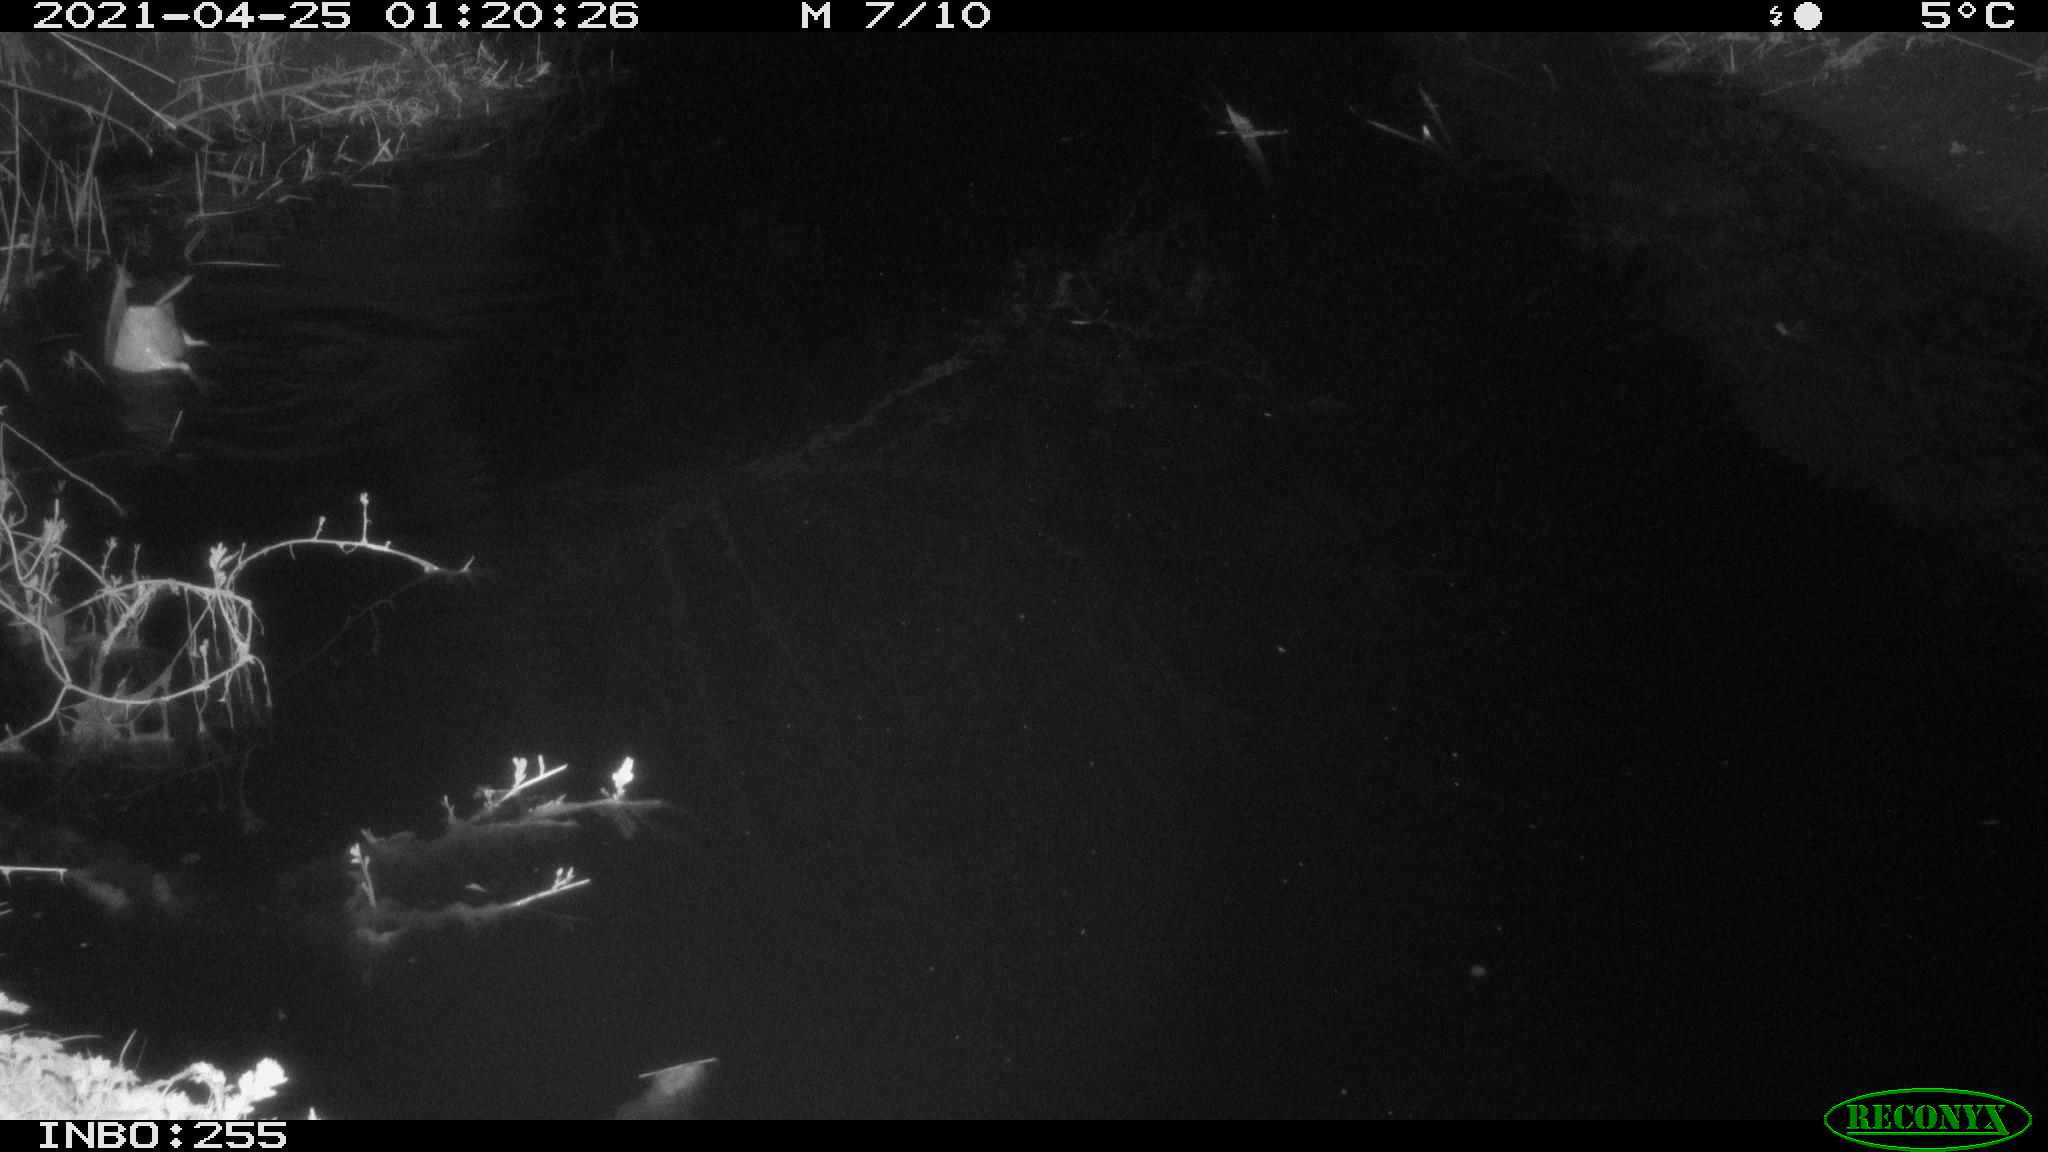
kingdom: Animalia
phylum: Chordata
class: Aves
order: Anseriformes
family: Anatidae
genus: Anas
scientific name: Anas platyrhynchos
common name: Mallard
